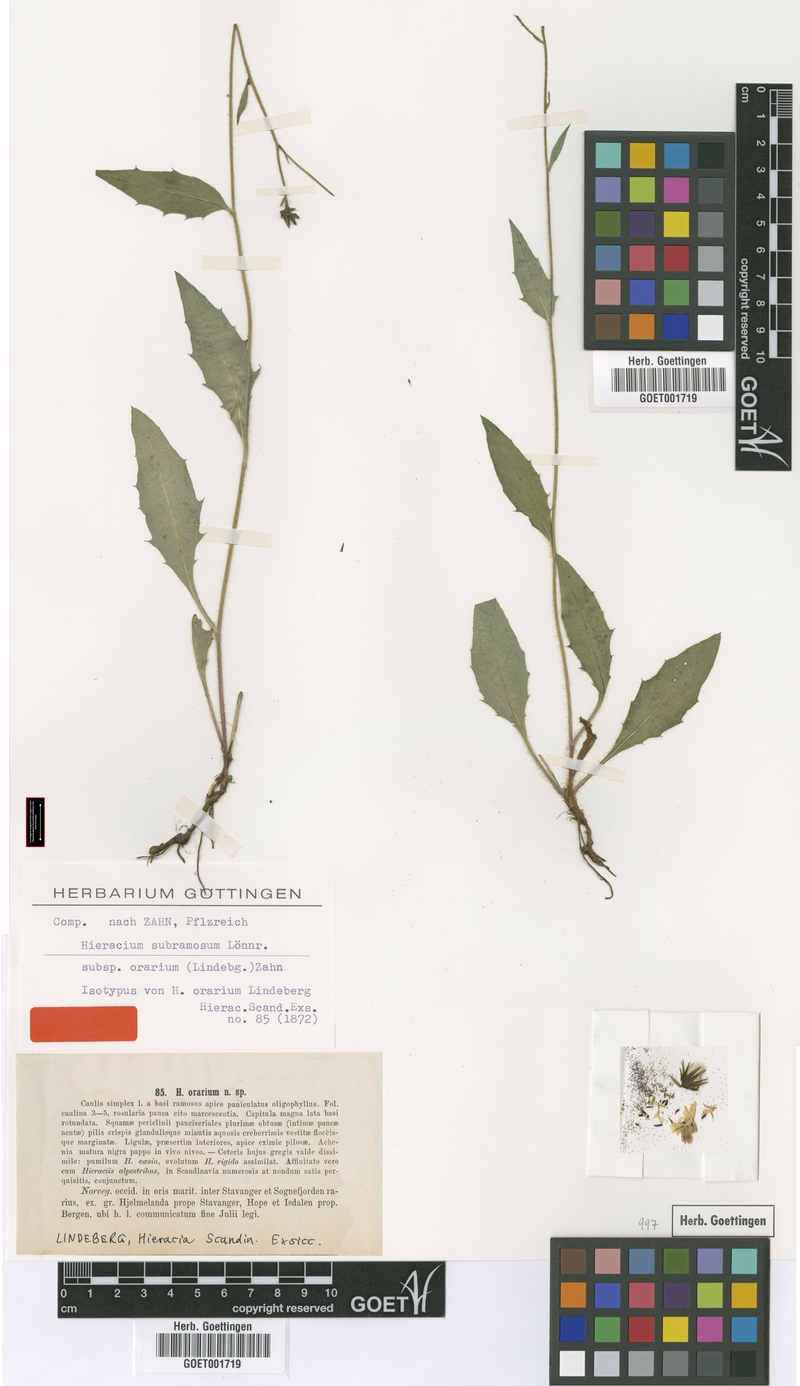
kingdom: Plantae
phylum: Tracheophyta
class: Magnoliopsida
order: Asterales
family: Asteraceae
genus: Hieracium
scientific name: Hieracium orarium
